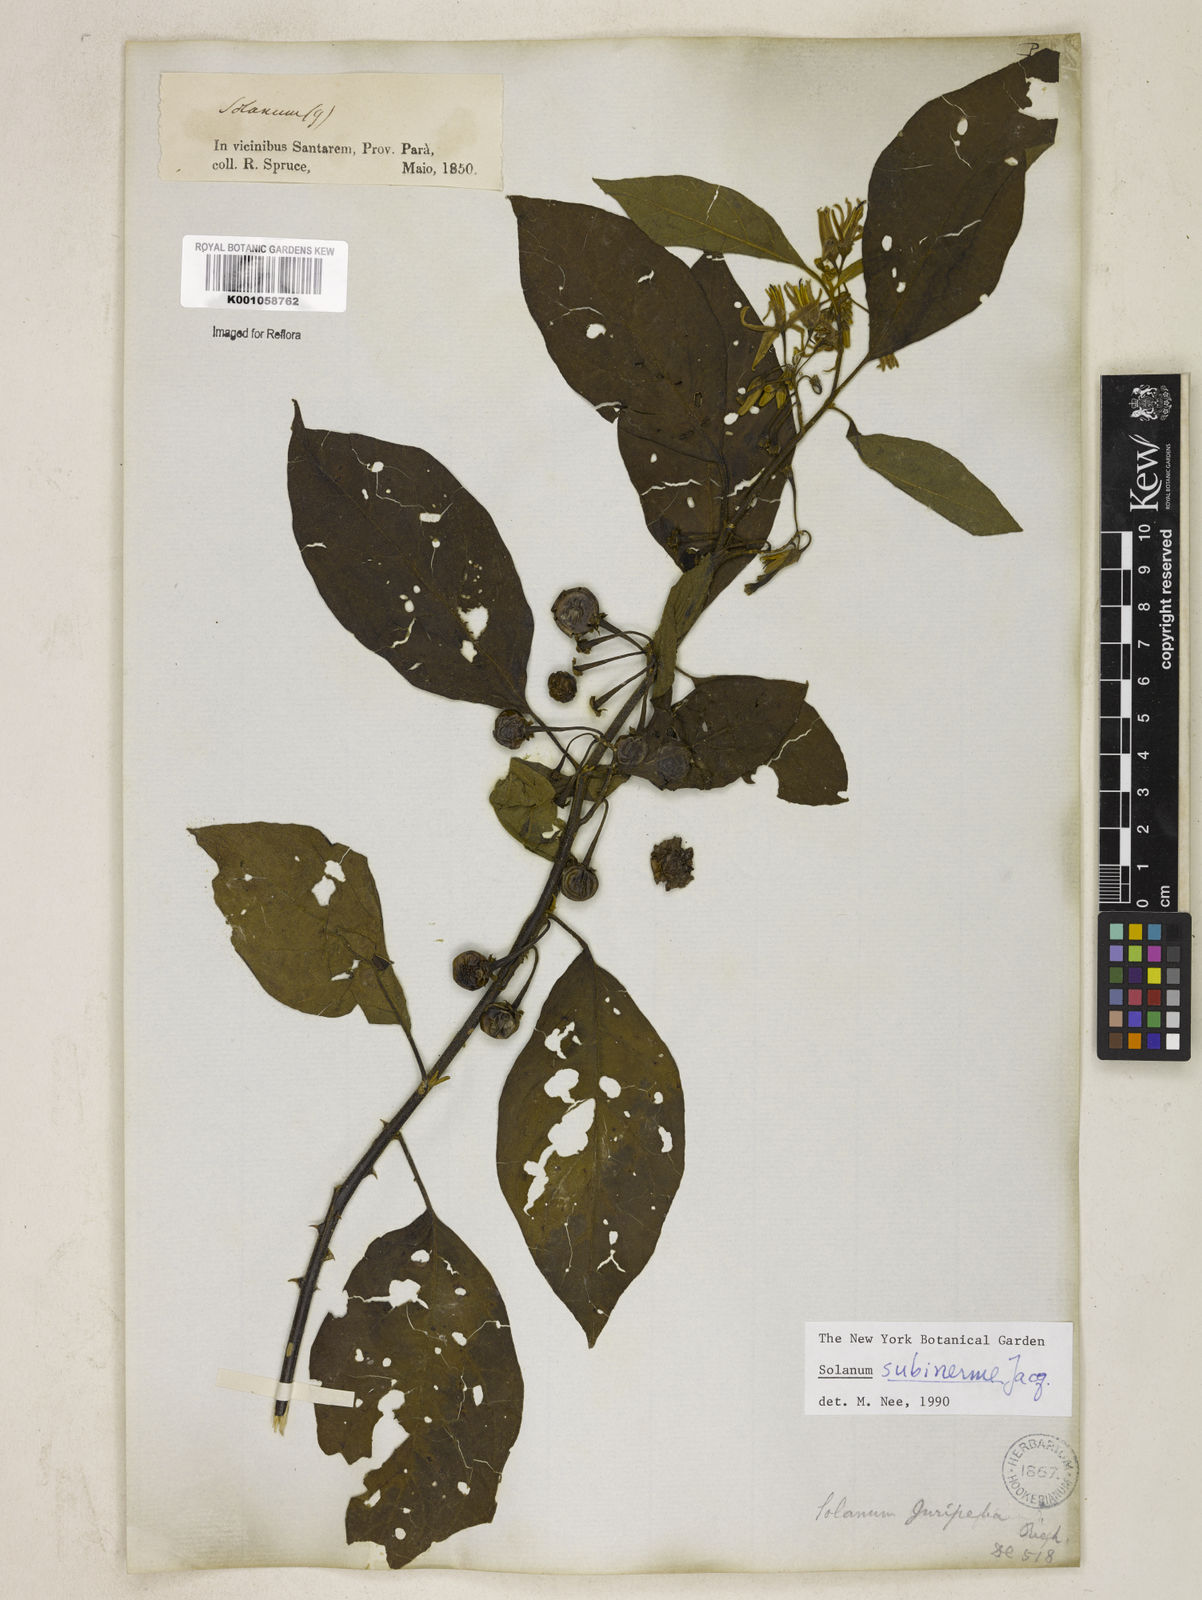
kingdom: Plantae
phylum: Tracheophyta
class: Magnoliopsida
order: Solanales
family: Solanaceae
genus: Solanum
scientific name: Solanum subinerme
